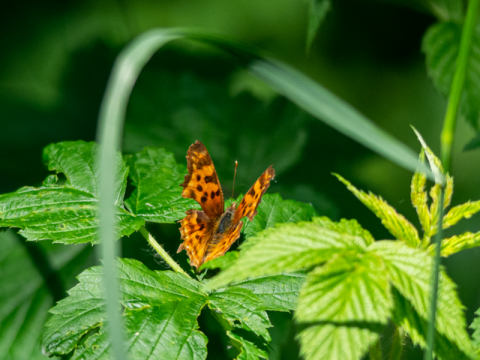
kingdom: Animalia
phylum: Arthropoda
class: Insecta
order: Lepidoptera
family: Nymphalidae
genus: Polygonia
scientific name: Polygonia satyrus
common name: Satyr Comma
